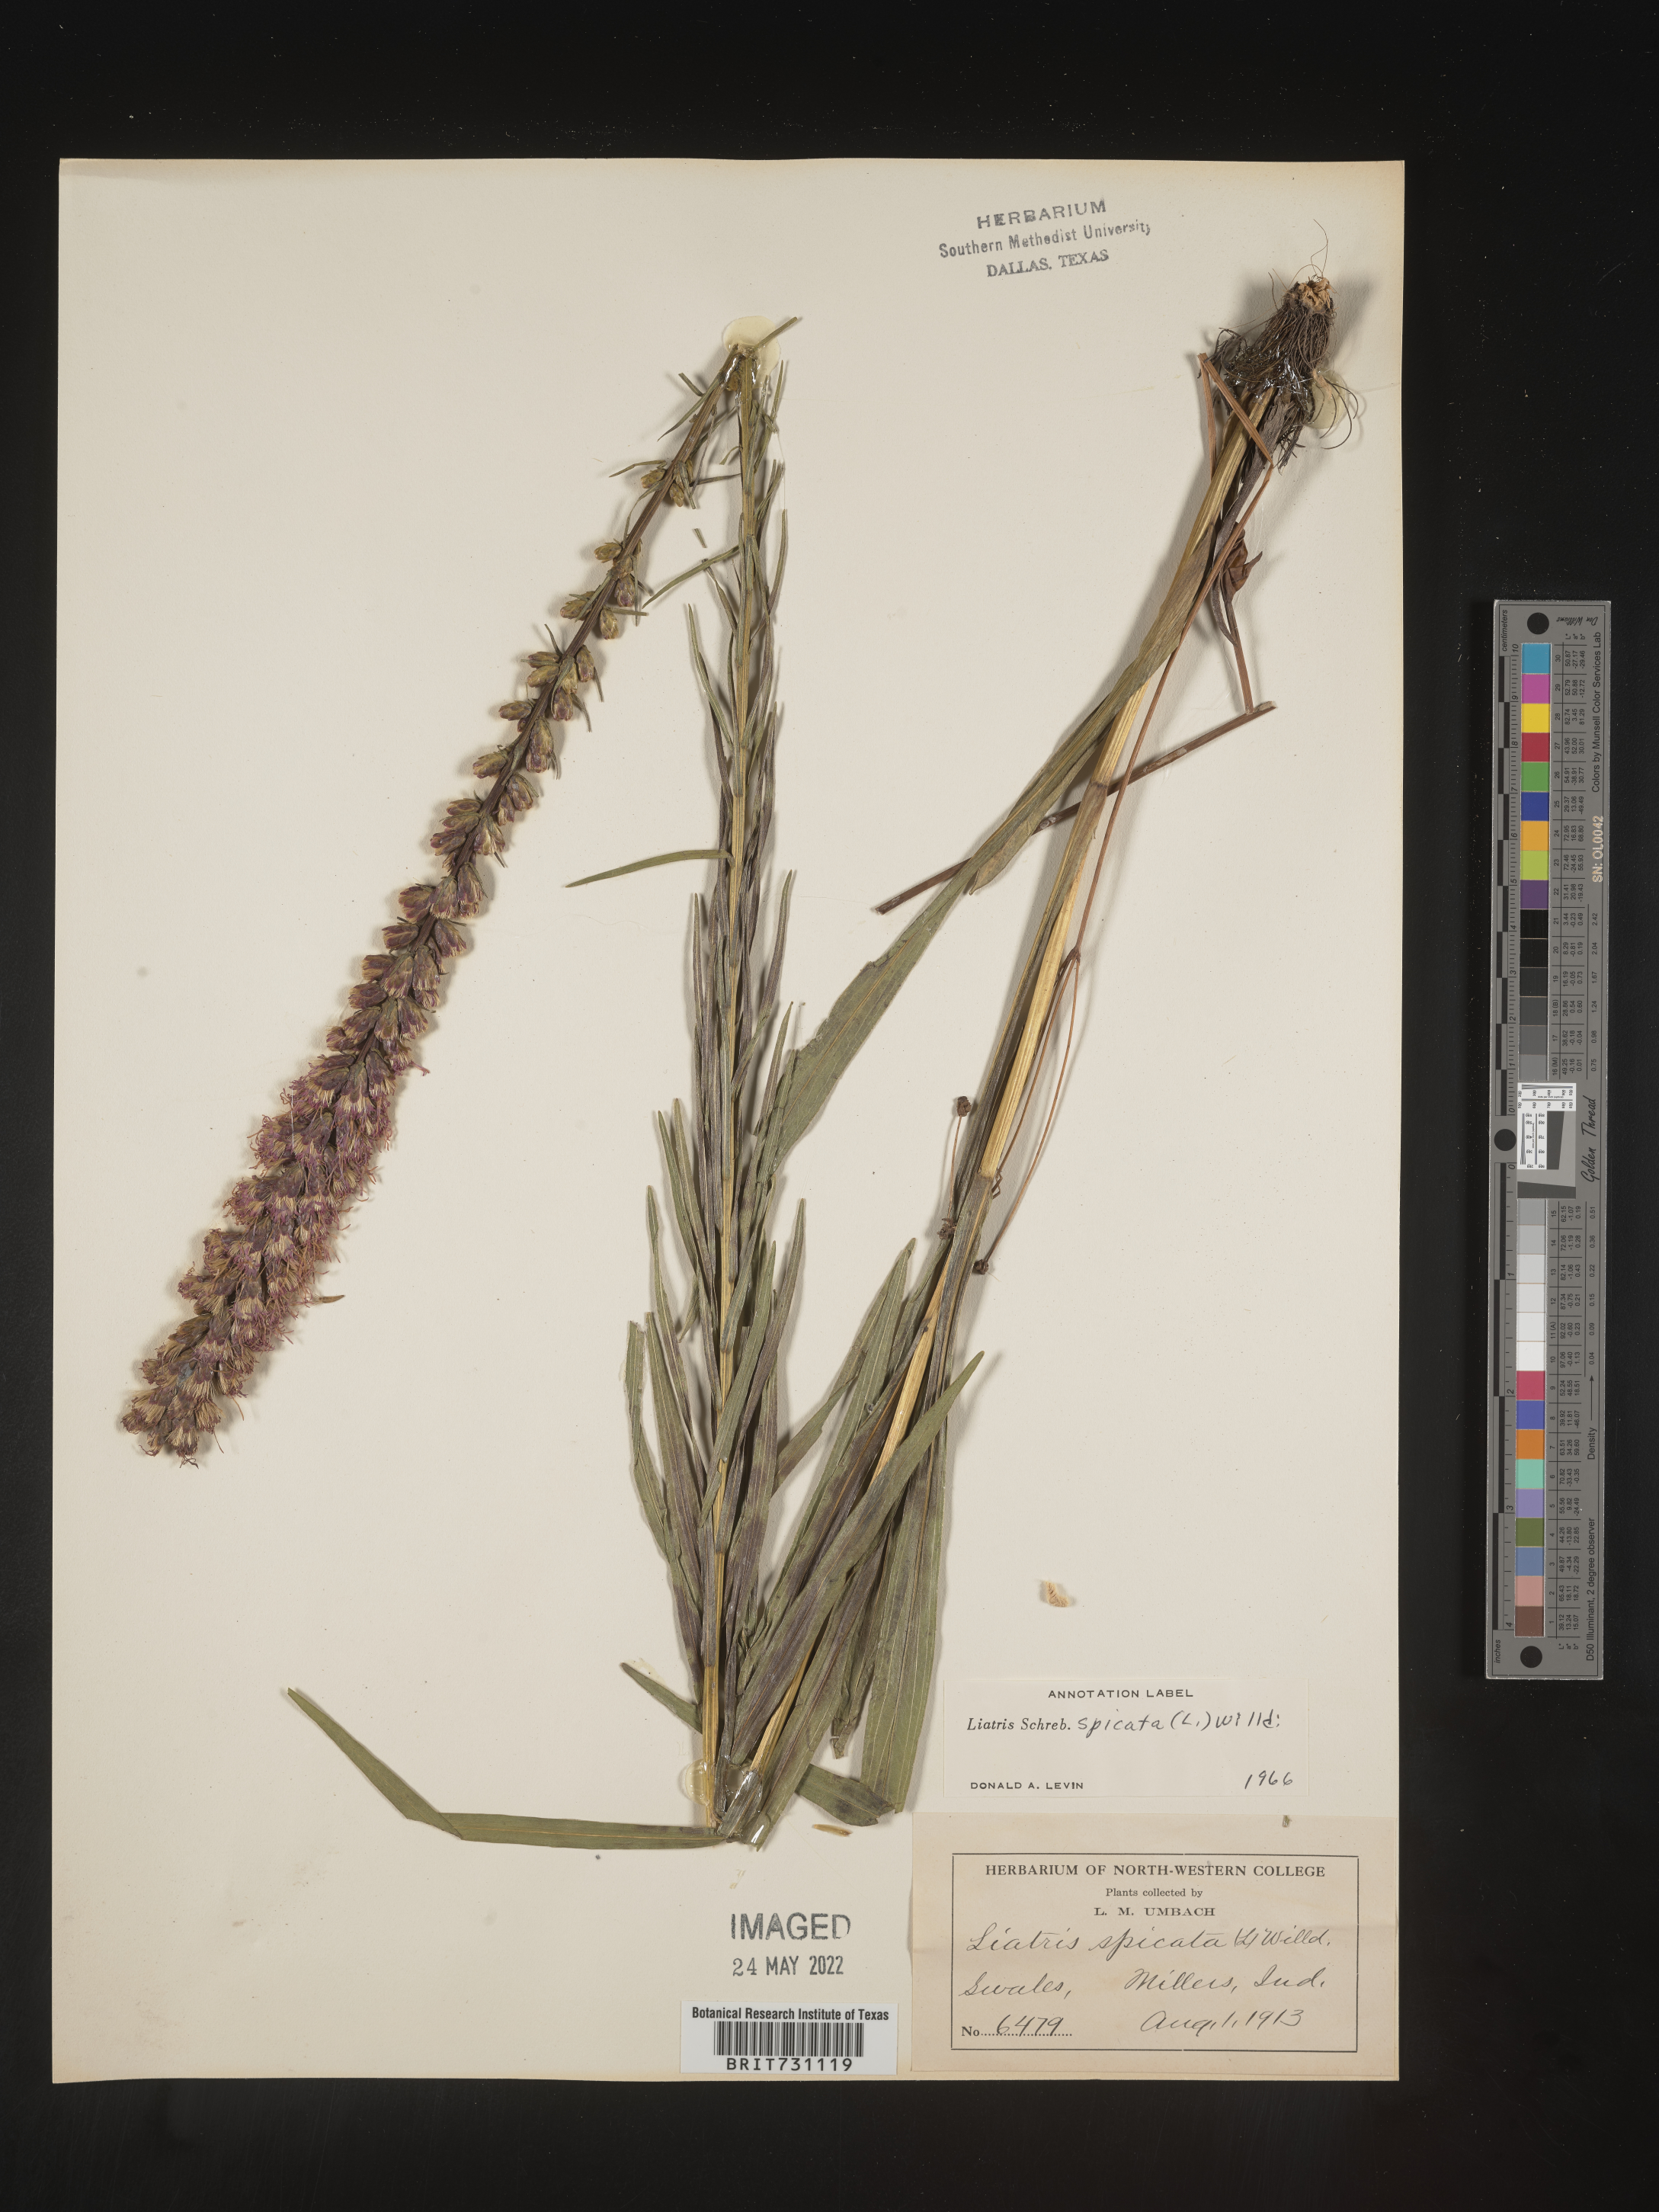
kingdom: Plantae
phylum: Tracheophyta
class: Magnoliopsida
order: Asterales
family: Asteraceae
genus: Liatris
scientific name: Liatris spicata
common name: Florist gayfeather
